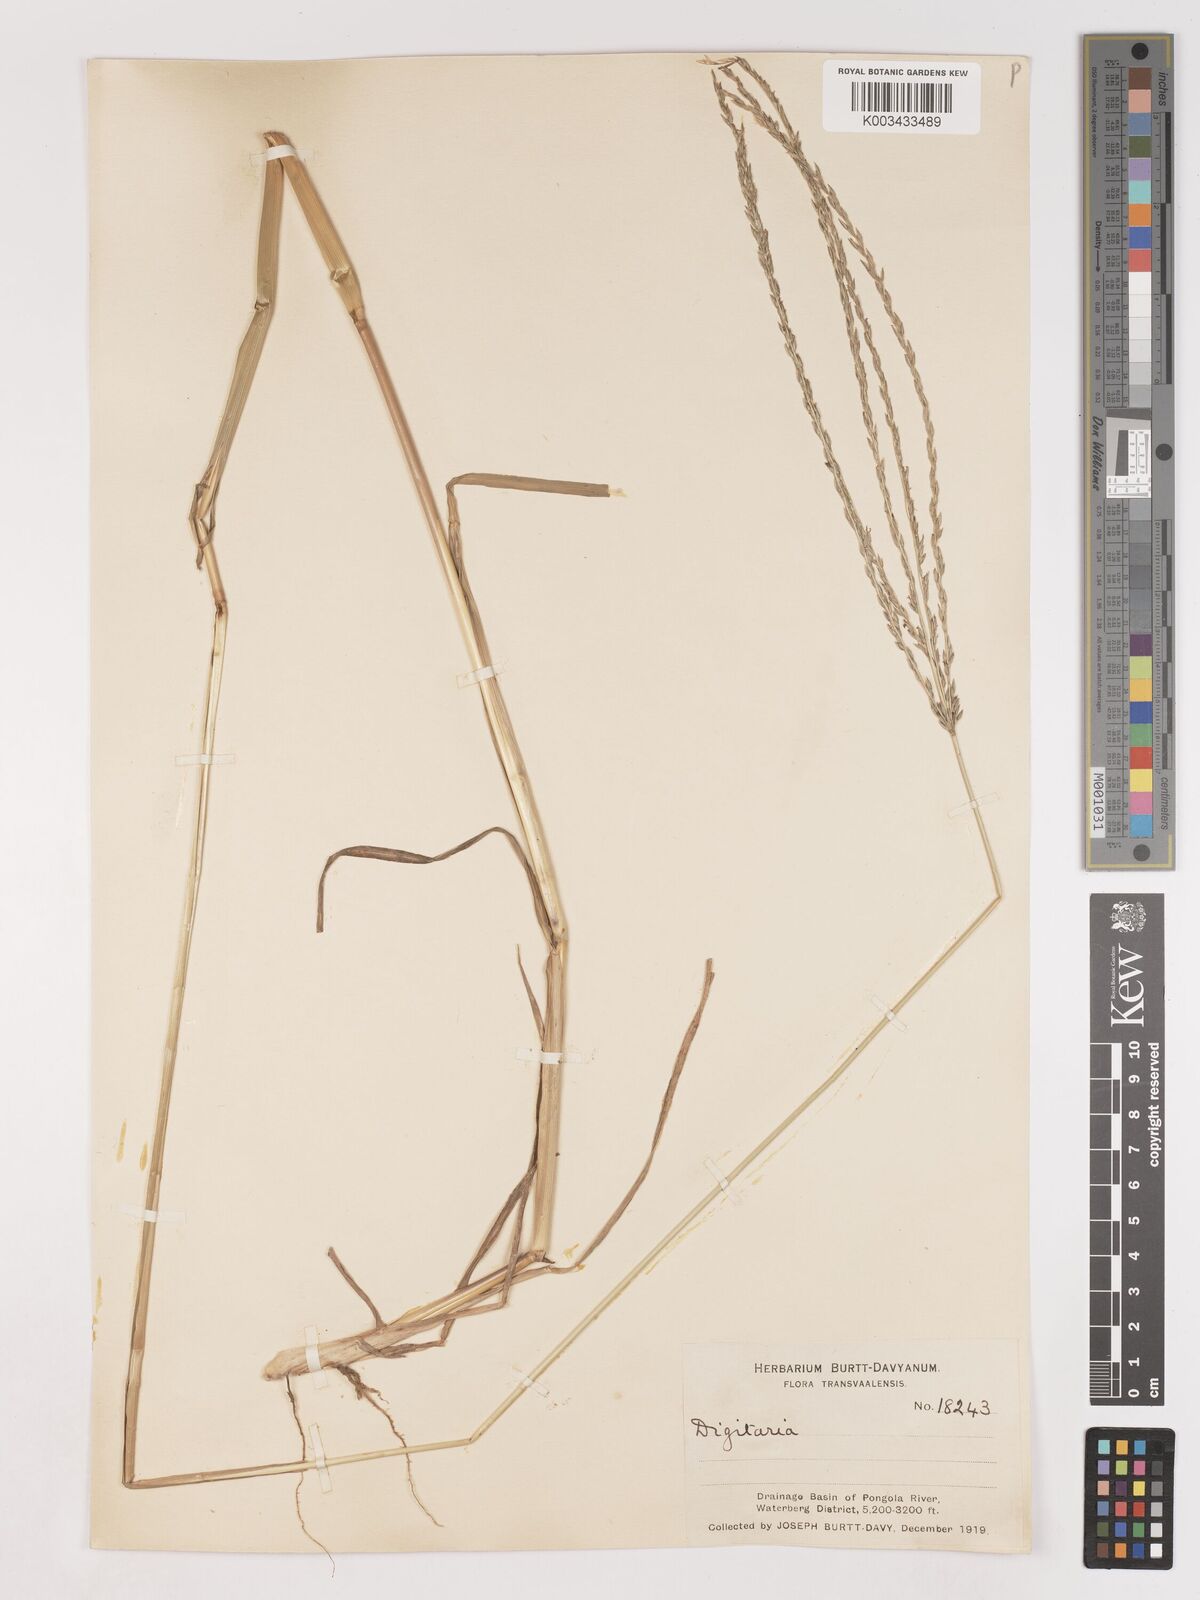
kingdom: Plantae
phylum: Tracheophyta
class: Liliopsida
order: Poales
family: Poaceae
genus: Digitaria
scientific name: Digitaria eriantha
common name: Digitgrass
